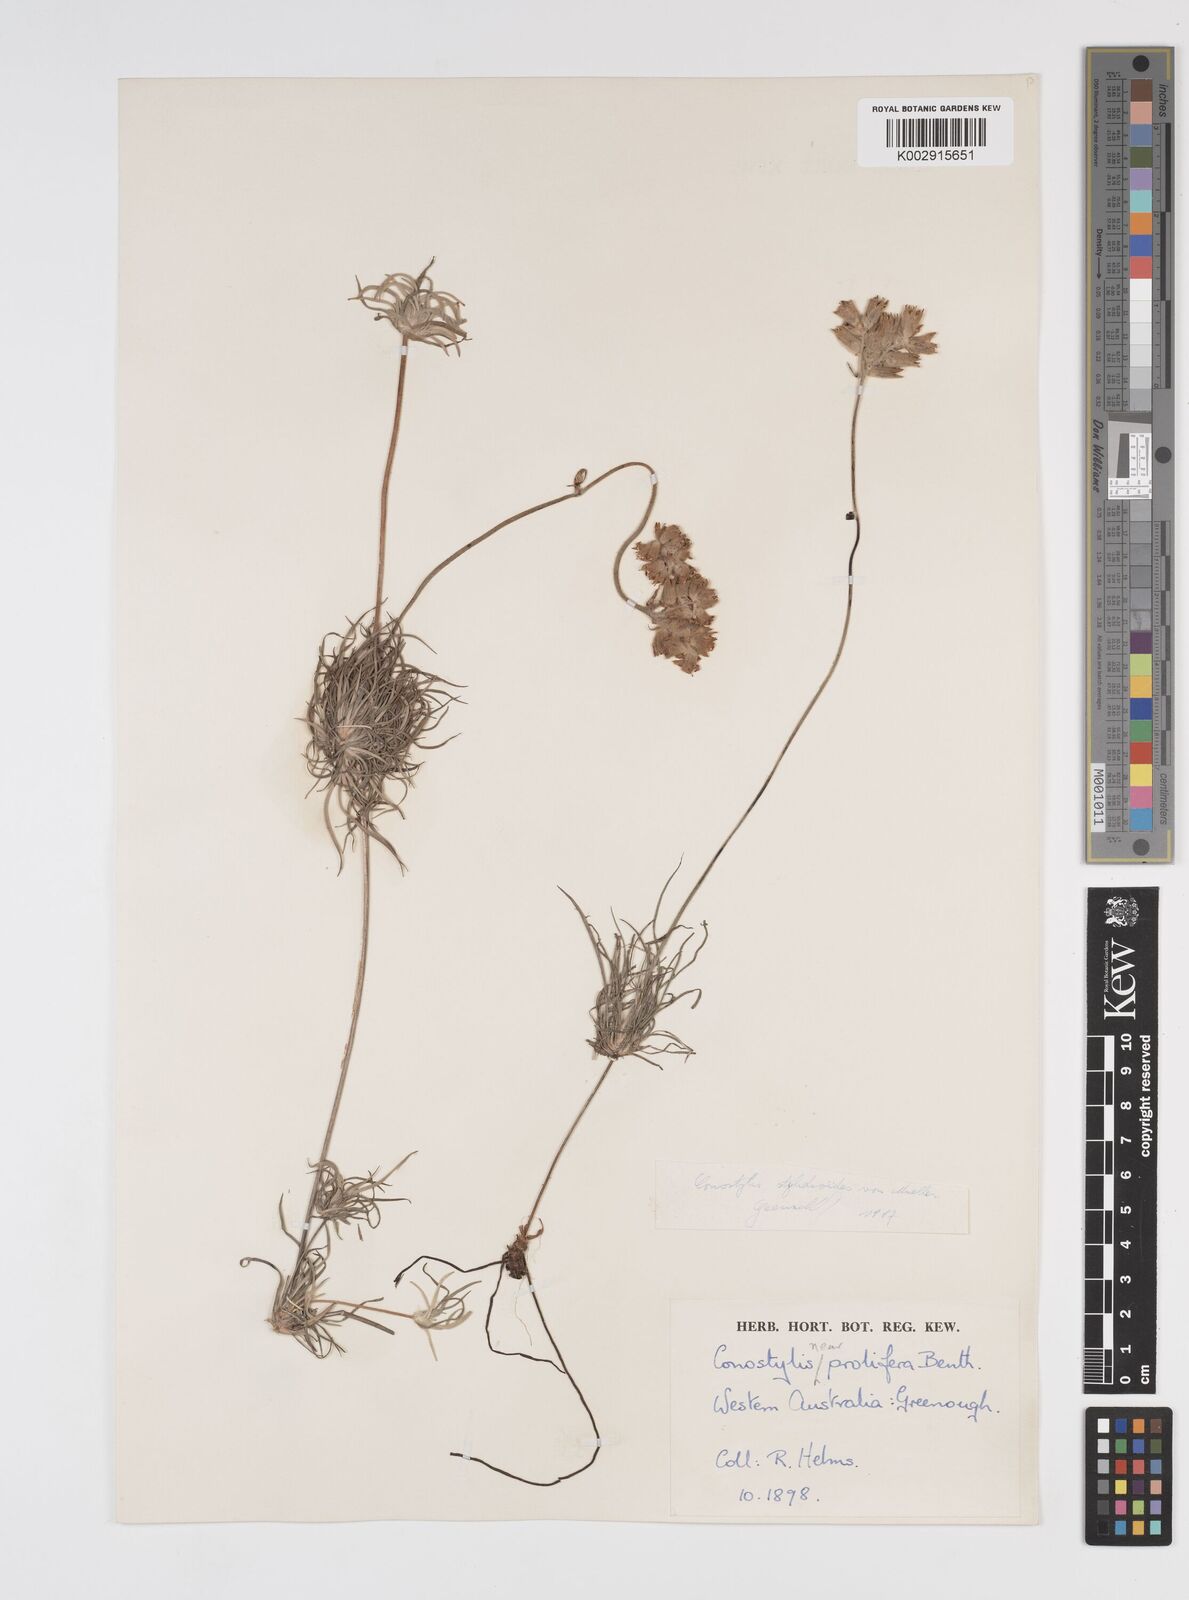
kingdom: Plantae
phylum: Tracheophyta
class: Liliopsida
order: Commelinales
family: Haemodoraceae
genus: Conostylis
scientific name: Conostylis stylidioides
